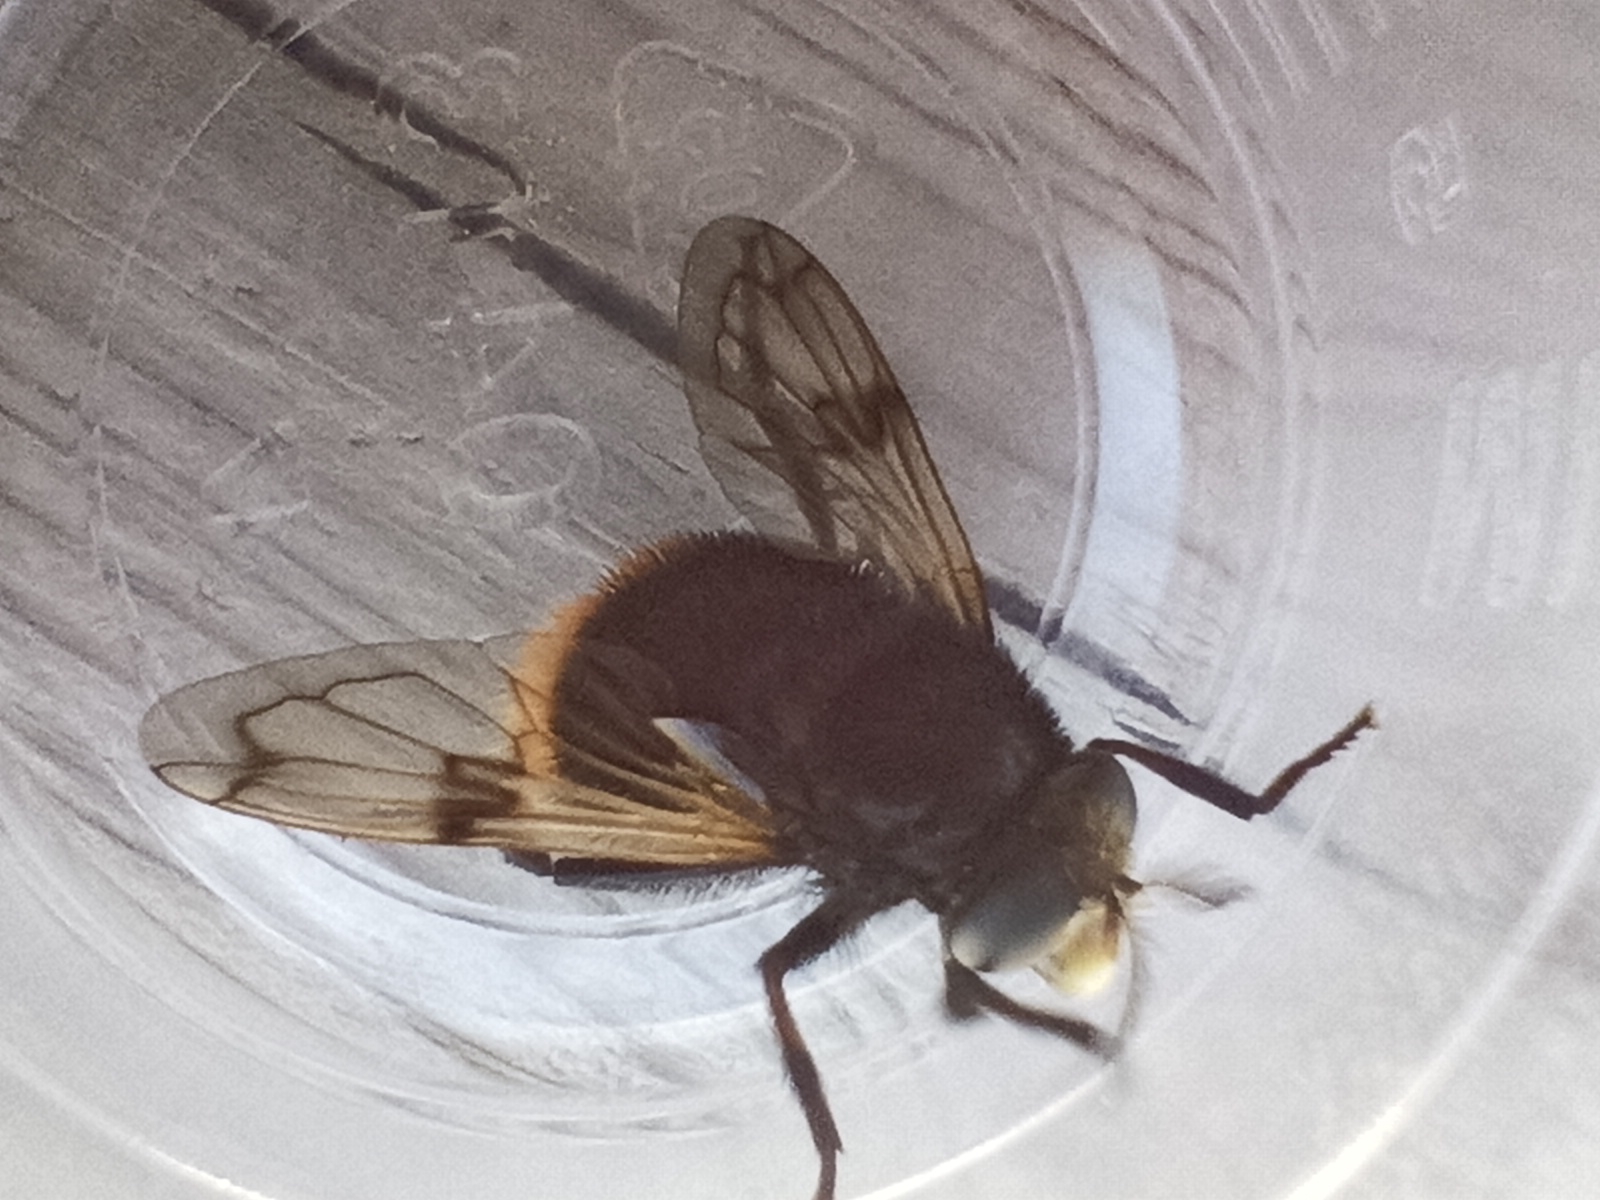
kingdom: Animalia
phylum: Arthropoda
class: Insecta
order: Diptera
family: Syrphidae
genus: Volucella
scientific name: Volucella bombylans
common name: Foranderlig humlesvirreflue
